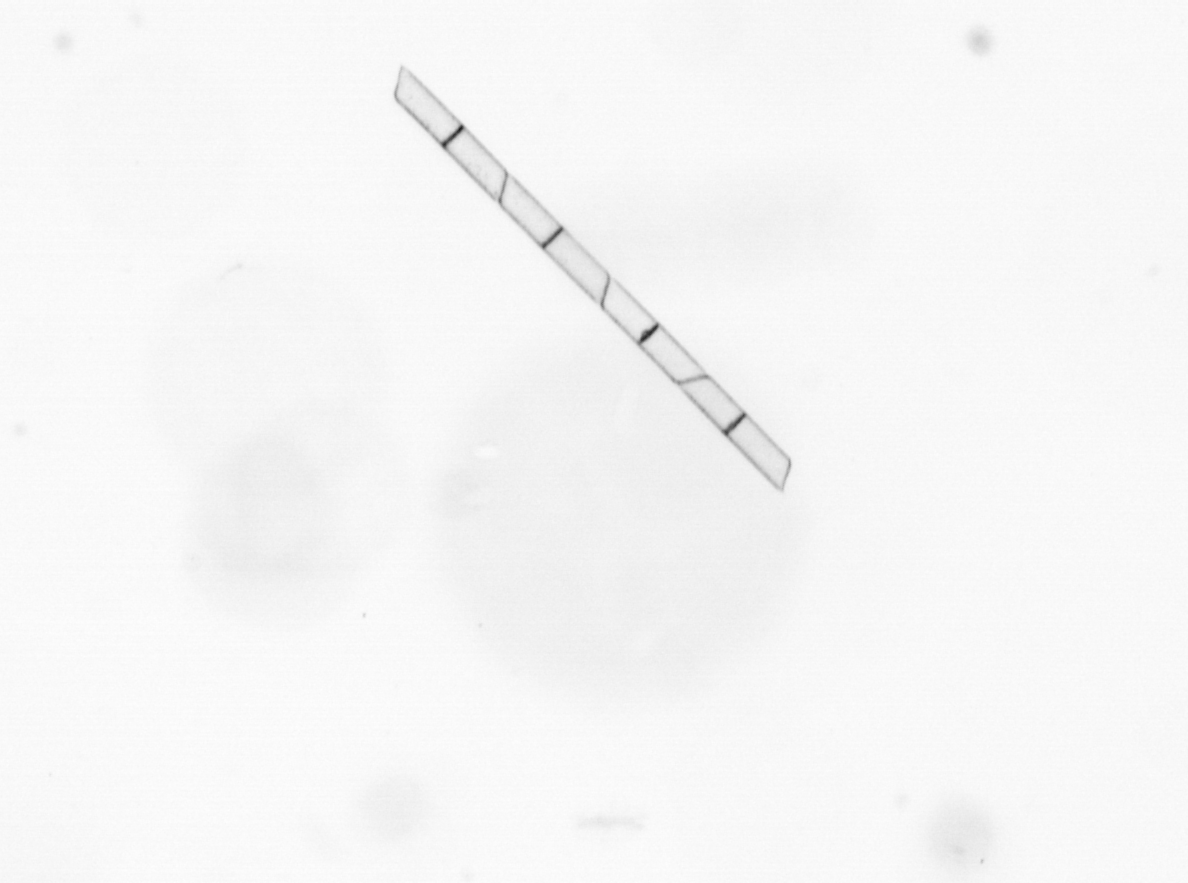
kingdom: Chromista
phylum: Ochrophyta
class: Bacillariophyceae
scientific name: Bacillariophyceae
